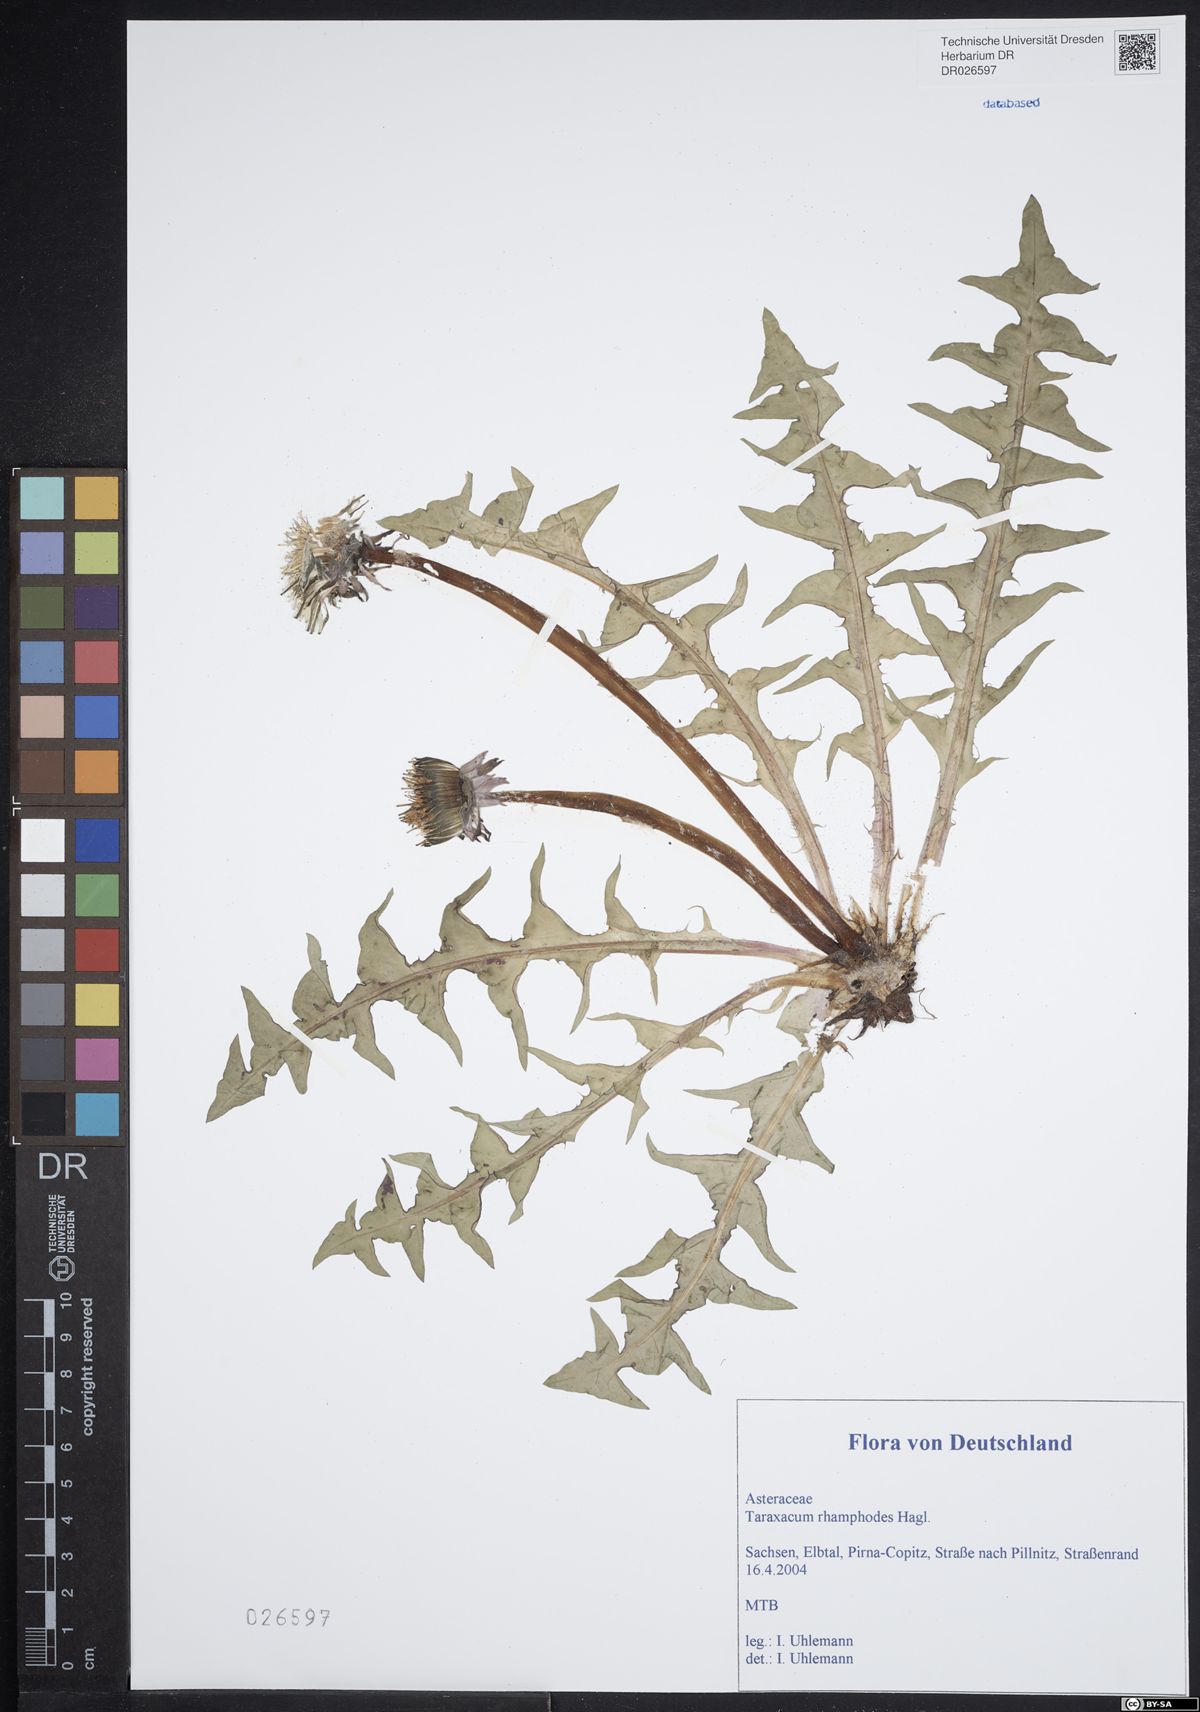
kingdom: Plantae
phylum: Tracheophyta
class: Magnoliopsida
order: Asterales
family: Asteraceae
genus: Taraxacum
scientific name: Taraxacum rhamphodes
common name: Robust dandelion
